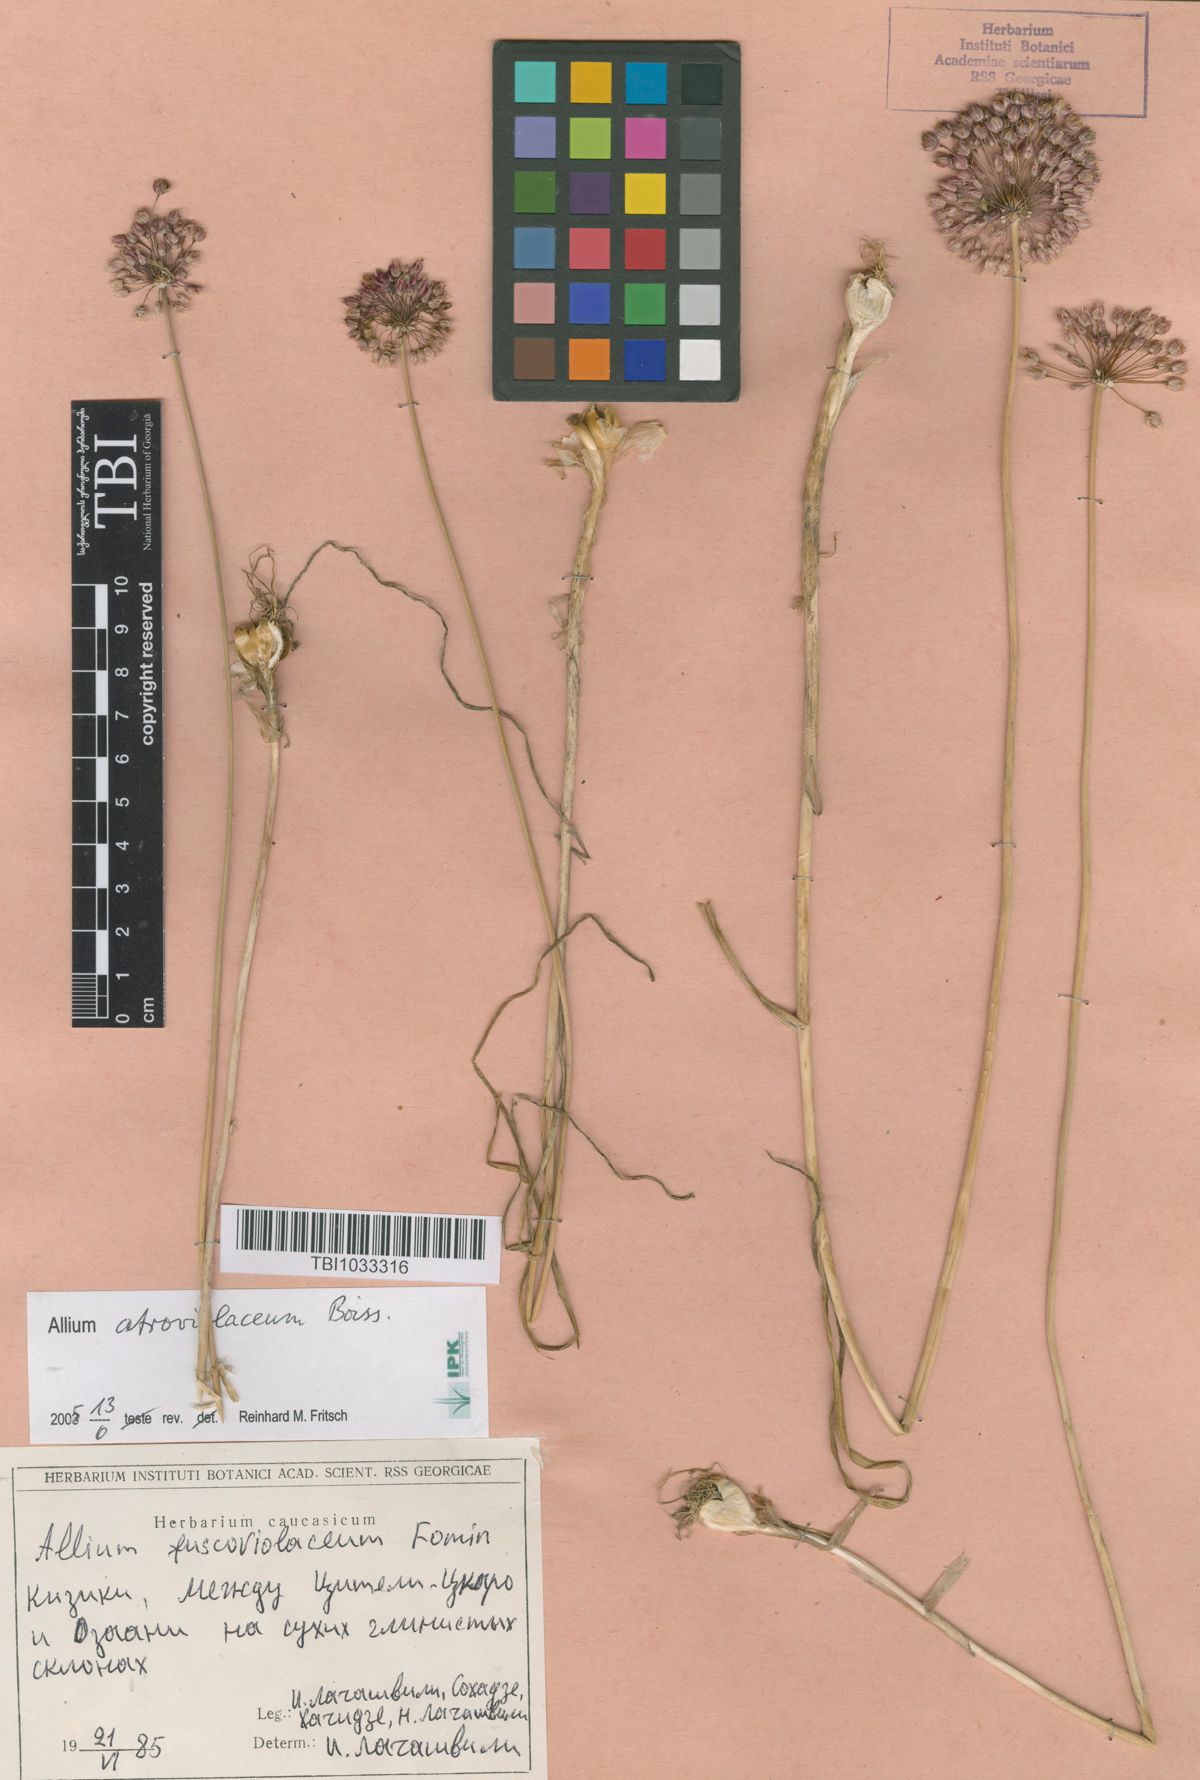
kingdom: Plantae
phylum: Tracheophyta
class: Liliopsida
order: Asparagales
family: Amaryllidaceae
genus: Allium
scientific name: Allium fuscoviolaceum
